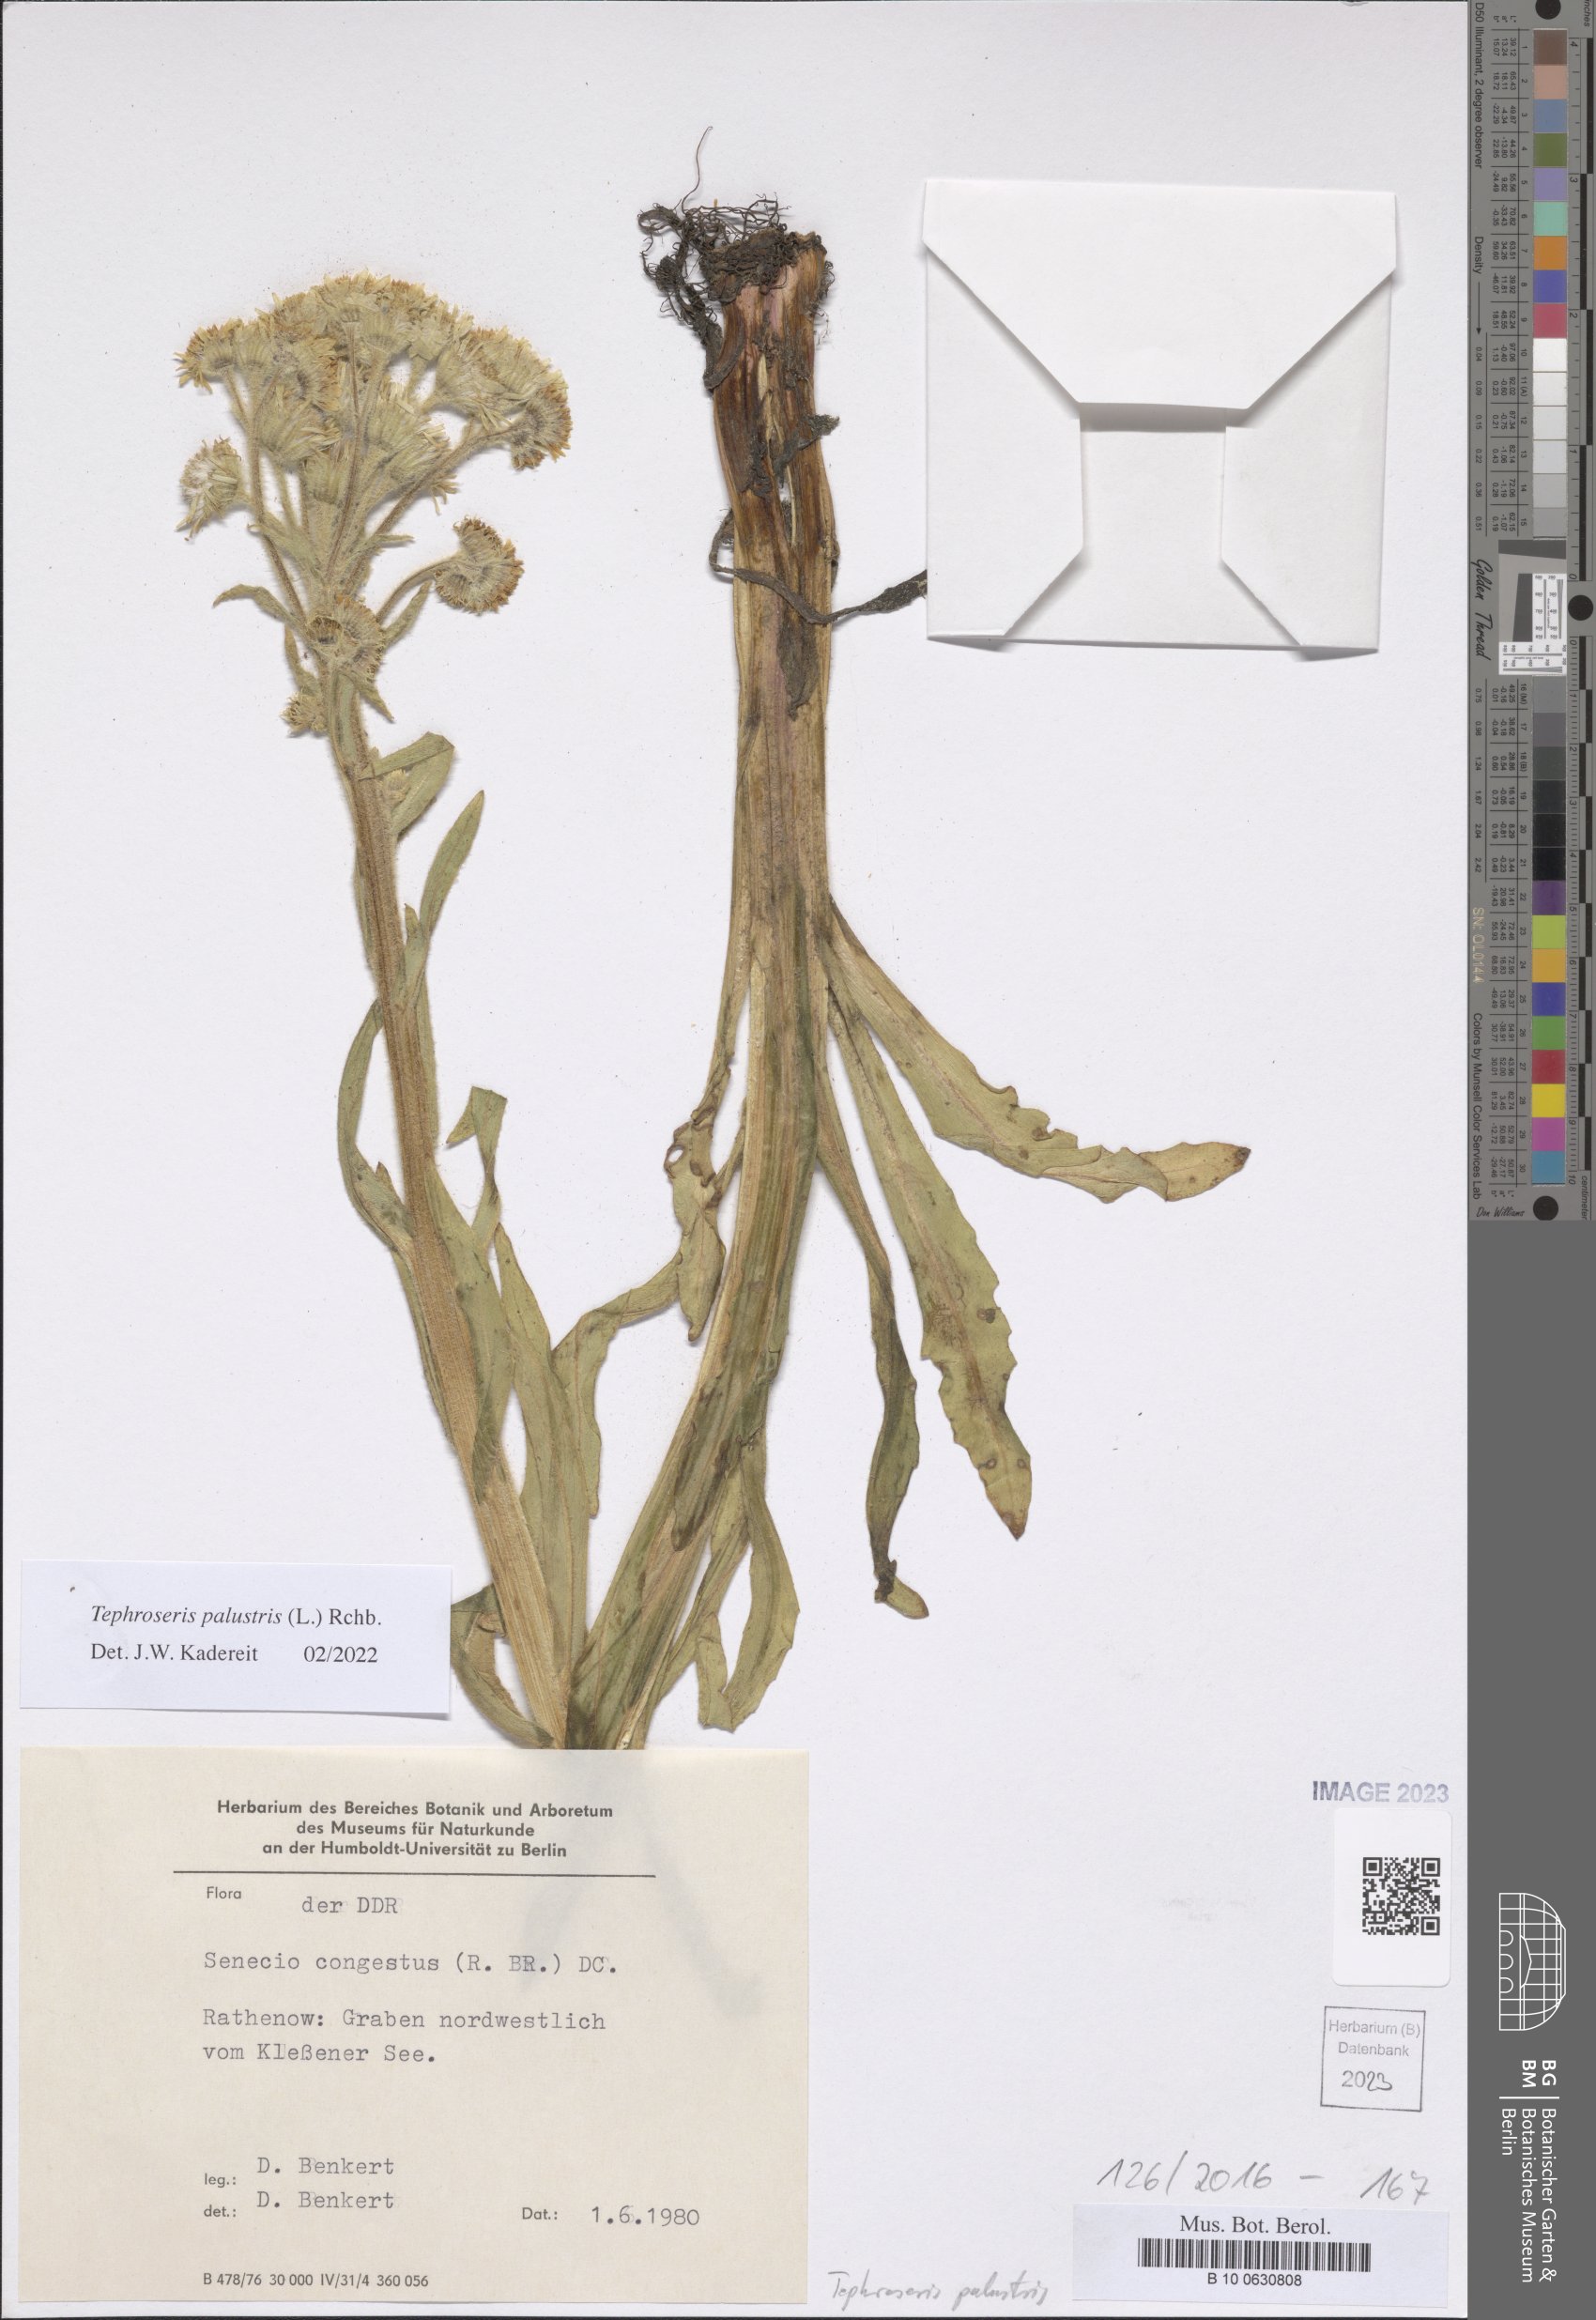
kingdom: Plantae
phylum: Tracheophyta
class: Magnoliopsida
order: Asterales
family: Asteraceae
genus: Tephroseris
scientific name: Tephroseris palustris
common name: Marsh fleawort
